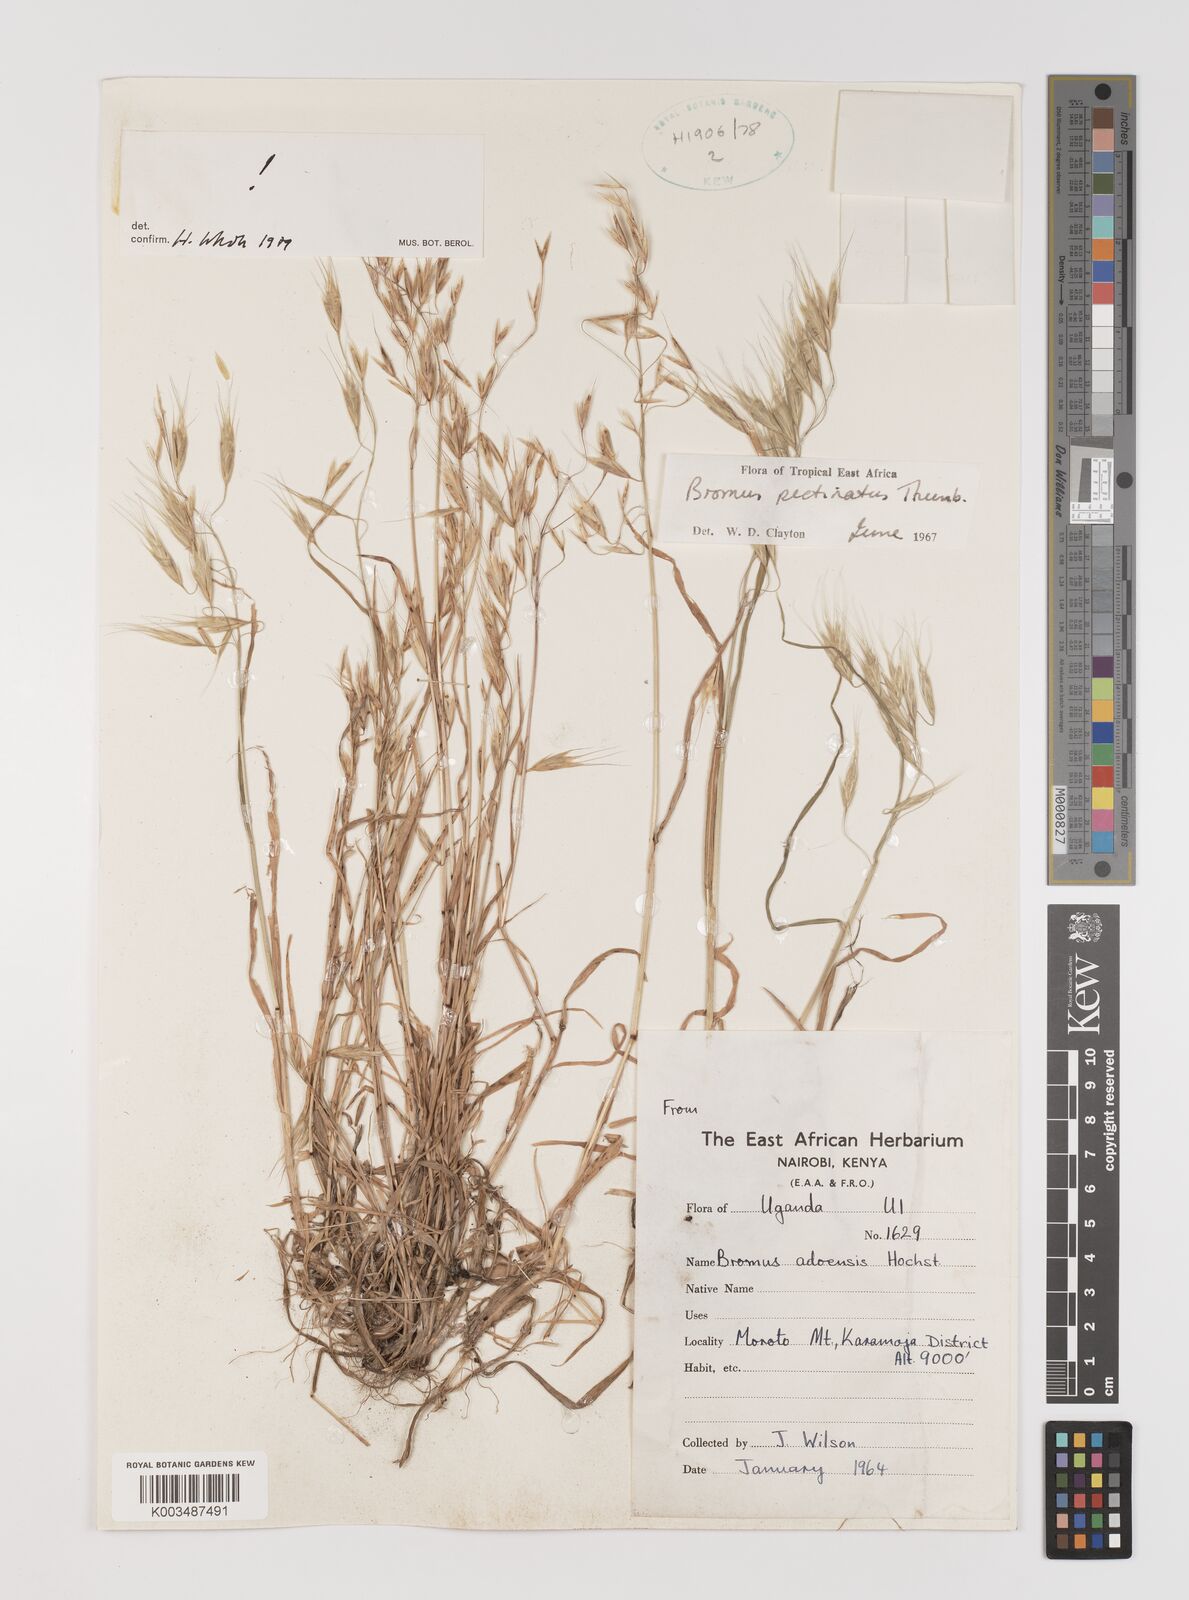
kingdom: Plantae
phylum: Tracheophyta
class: Liliopsida
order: Poales
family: Poaceae
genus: Bromus
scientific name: Bromus pectinatus
